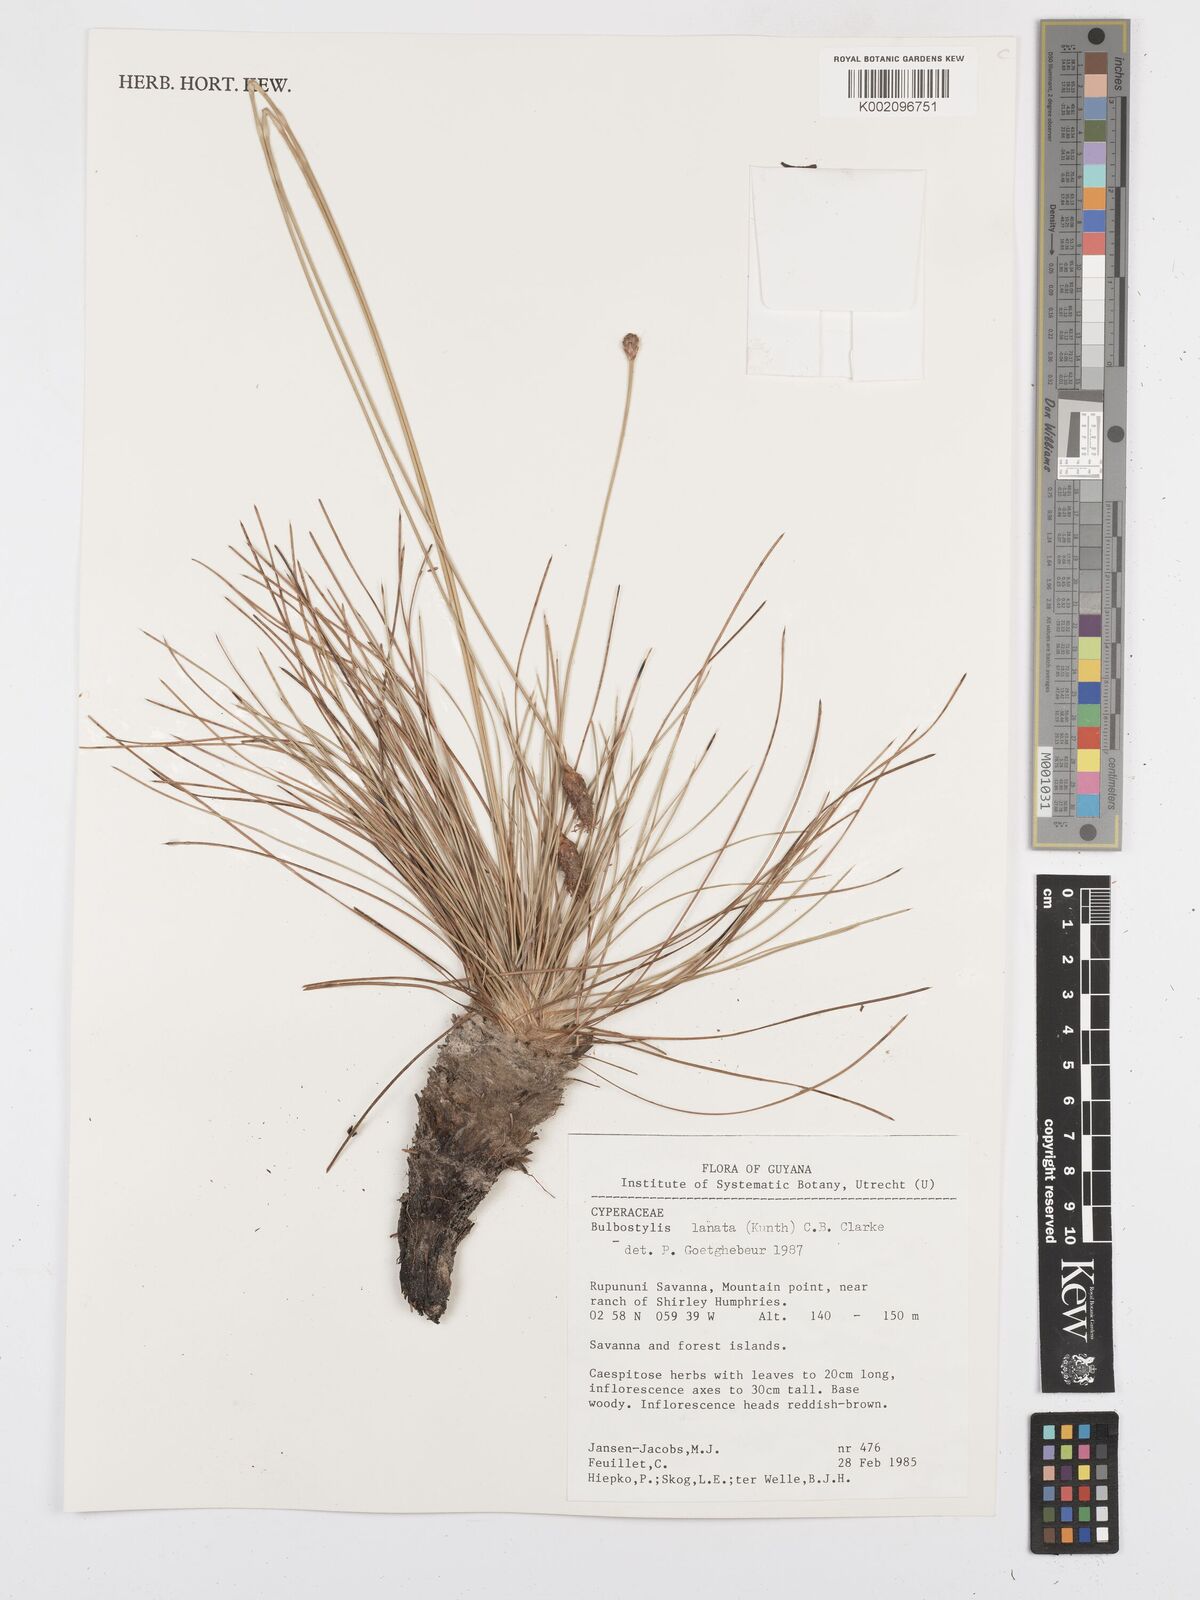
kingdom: Plantae
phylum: Tracheophyta
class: Liliopsida
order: Poales
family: Cyperaceae
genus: Bulbostylis
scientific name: Bulbostylis lanata
